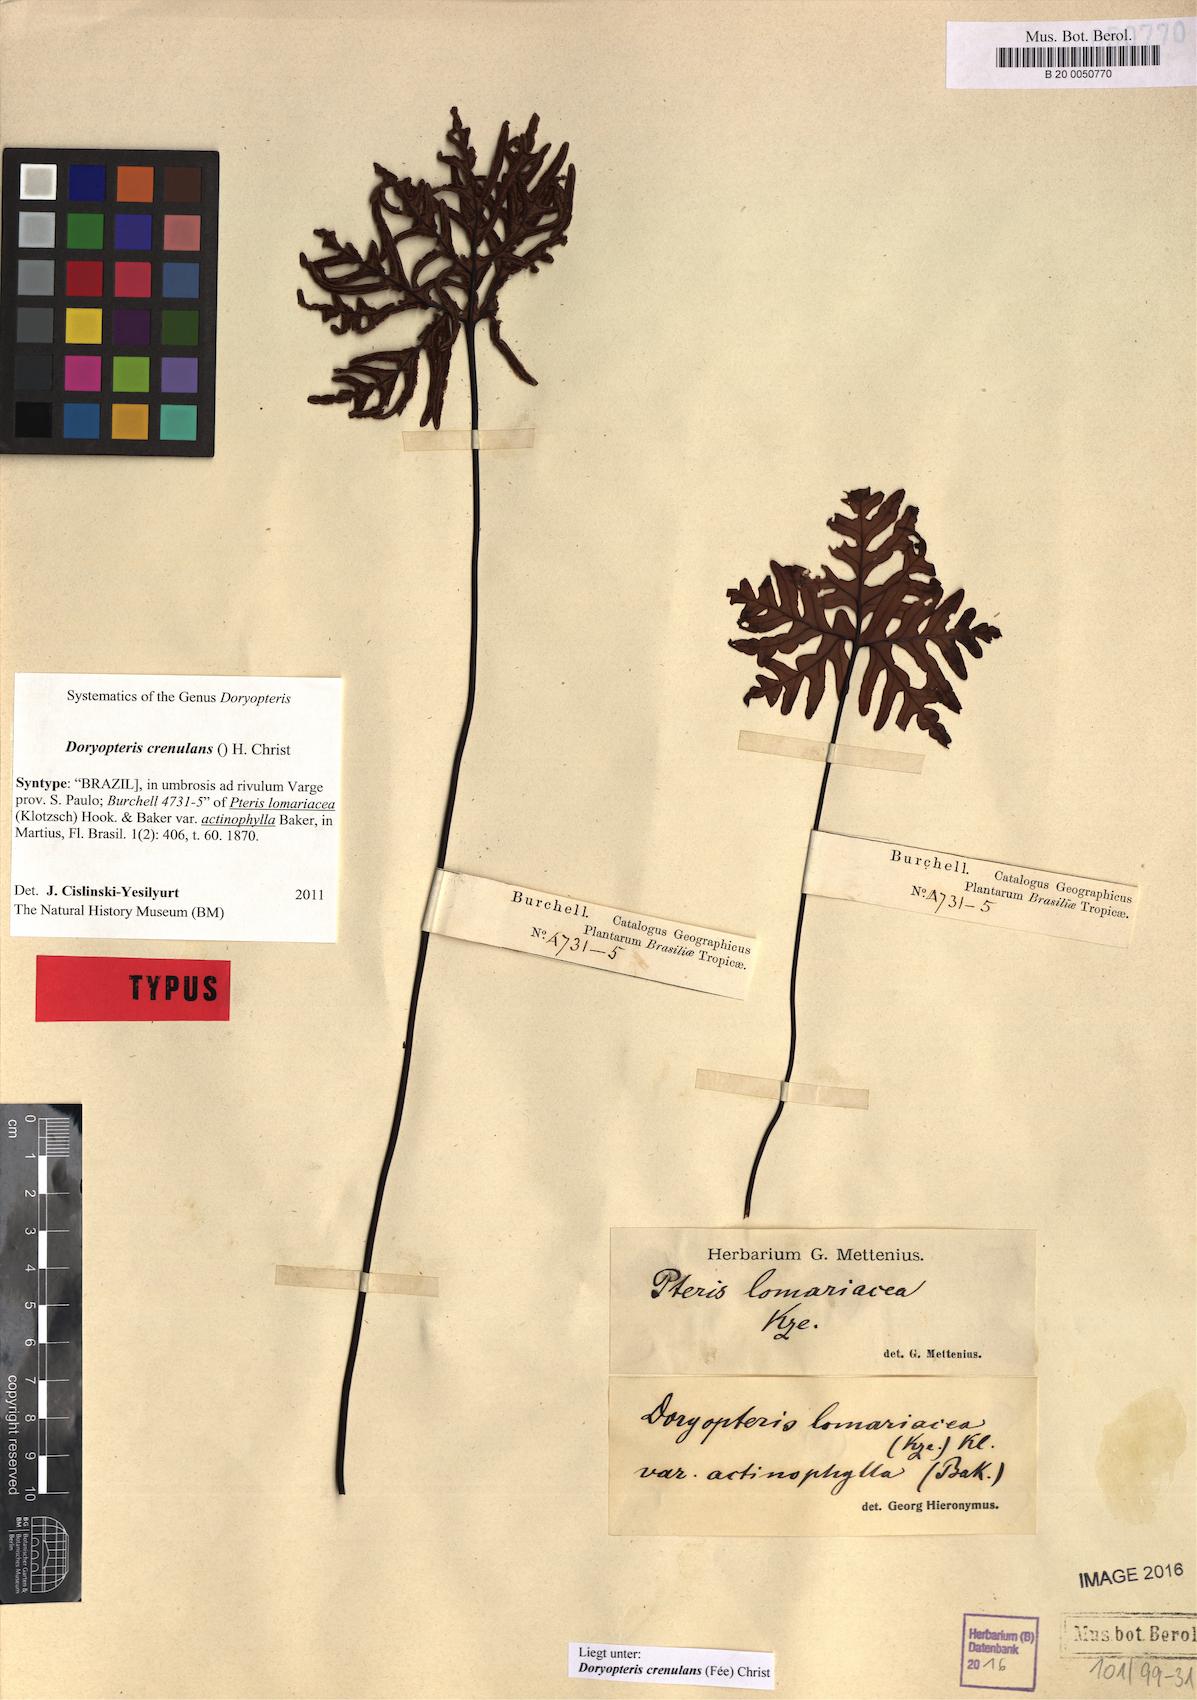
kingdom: Plantae
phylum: Tracheophyta
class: Polypodiopsida
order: Polypodiales
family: Pteridaceae
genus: Lytoneuron
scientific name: Lytoneuron crenulans
